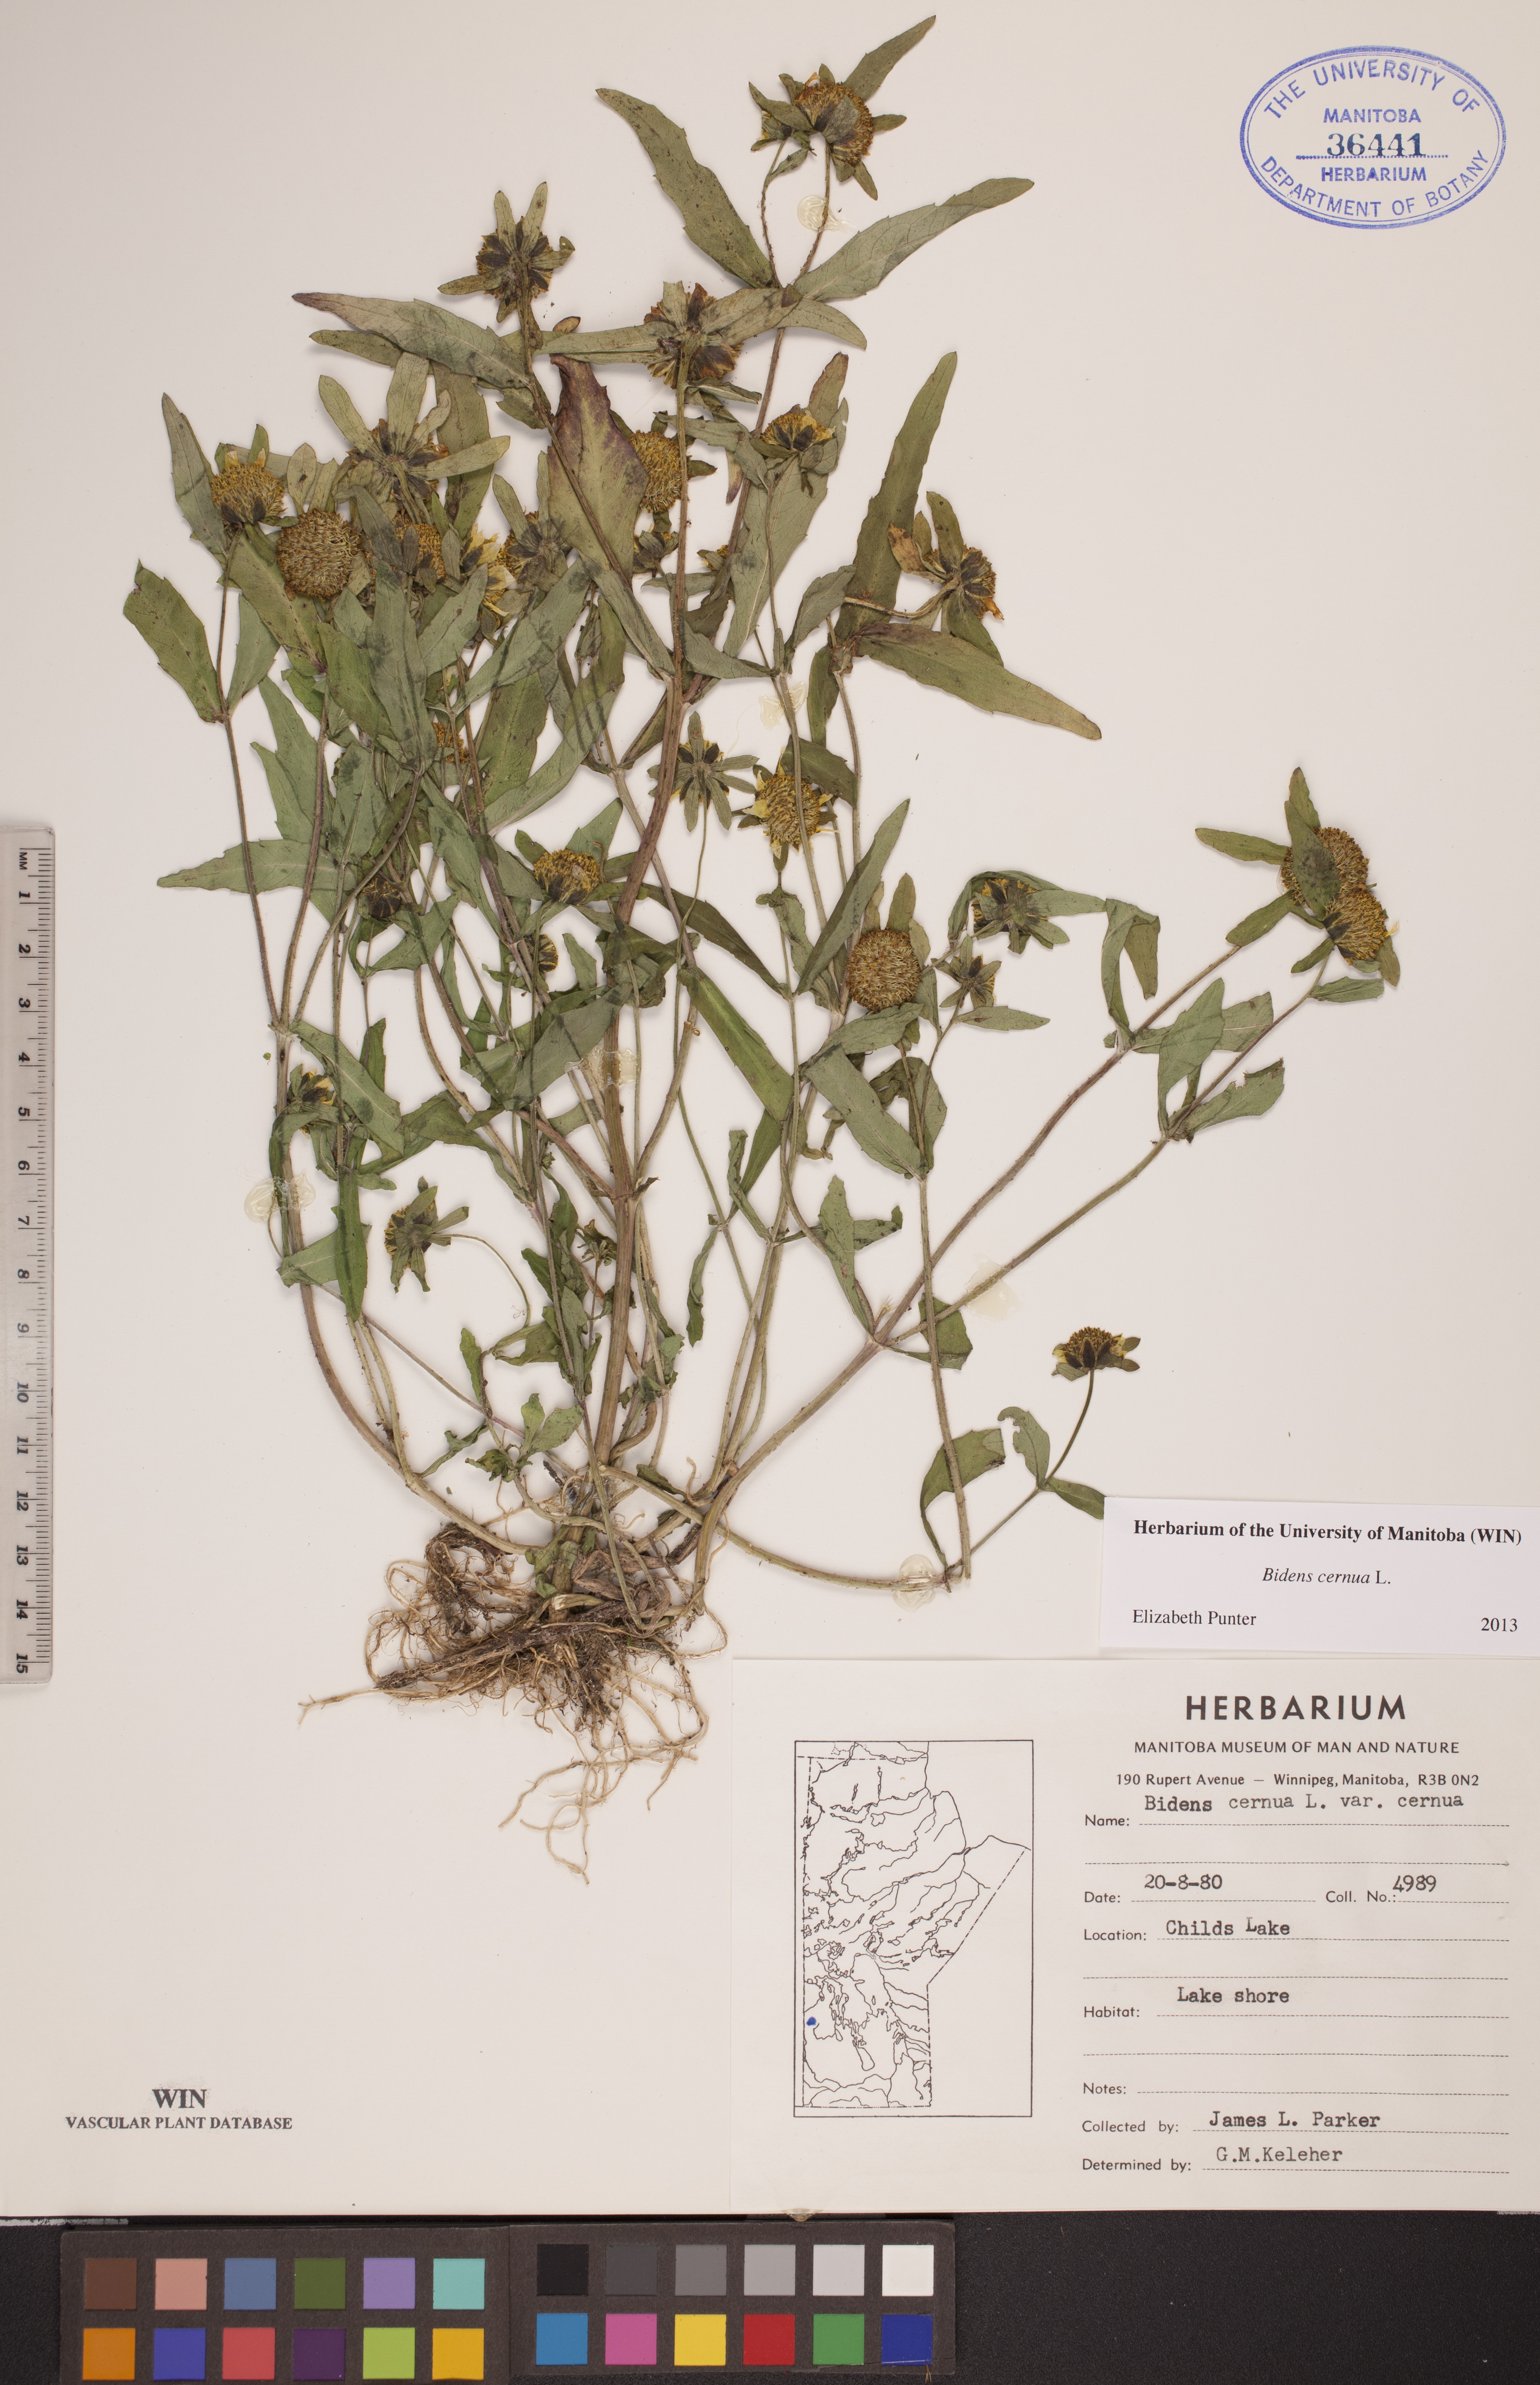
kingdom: Plantae
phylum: Tracheophyta
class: Magnoliopsida
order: Asterales
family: Asteraceae
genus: Bidens
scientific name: Bidens cernua
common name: Nodding bur-marigold
